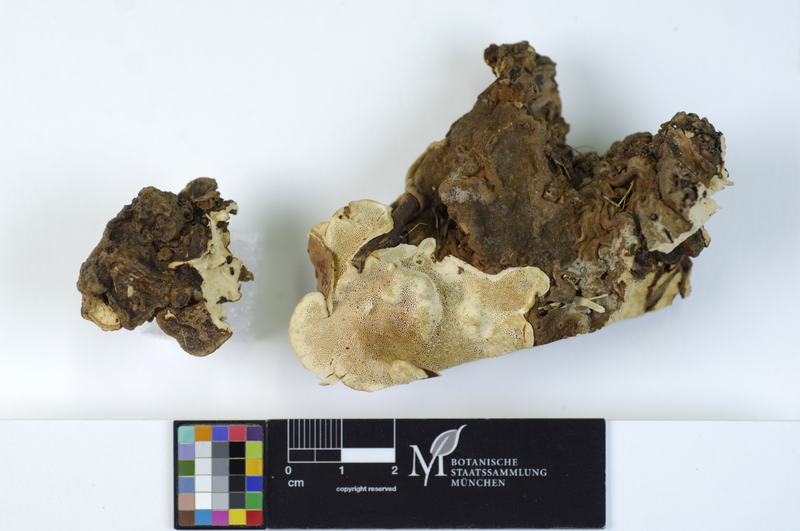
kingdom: Fungi
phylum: Basidiomycota
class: Agaricomycetes
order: Russulales
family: Bondarzewiaceae
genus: Heterobasidion
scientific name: Heterobasidion annosum
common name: Root rot
